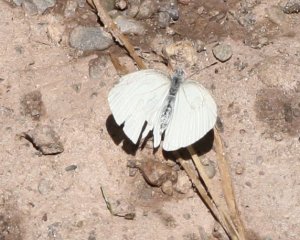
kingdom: Animalia
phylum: Arthropoda
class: Insecta
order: Lepidoptera
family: Pieridae
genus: Pieris
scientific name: Pieris oleracea
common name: Mustard White
